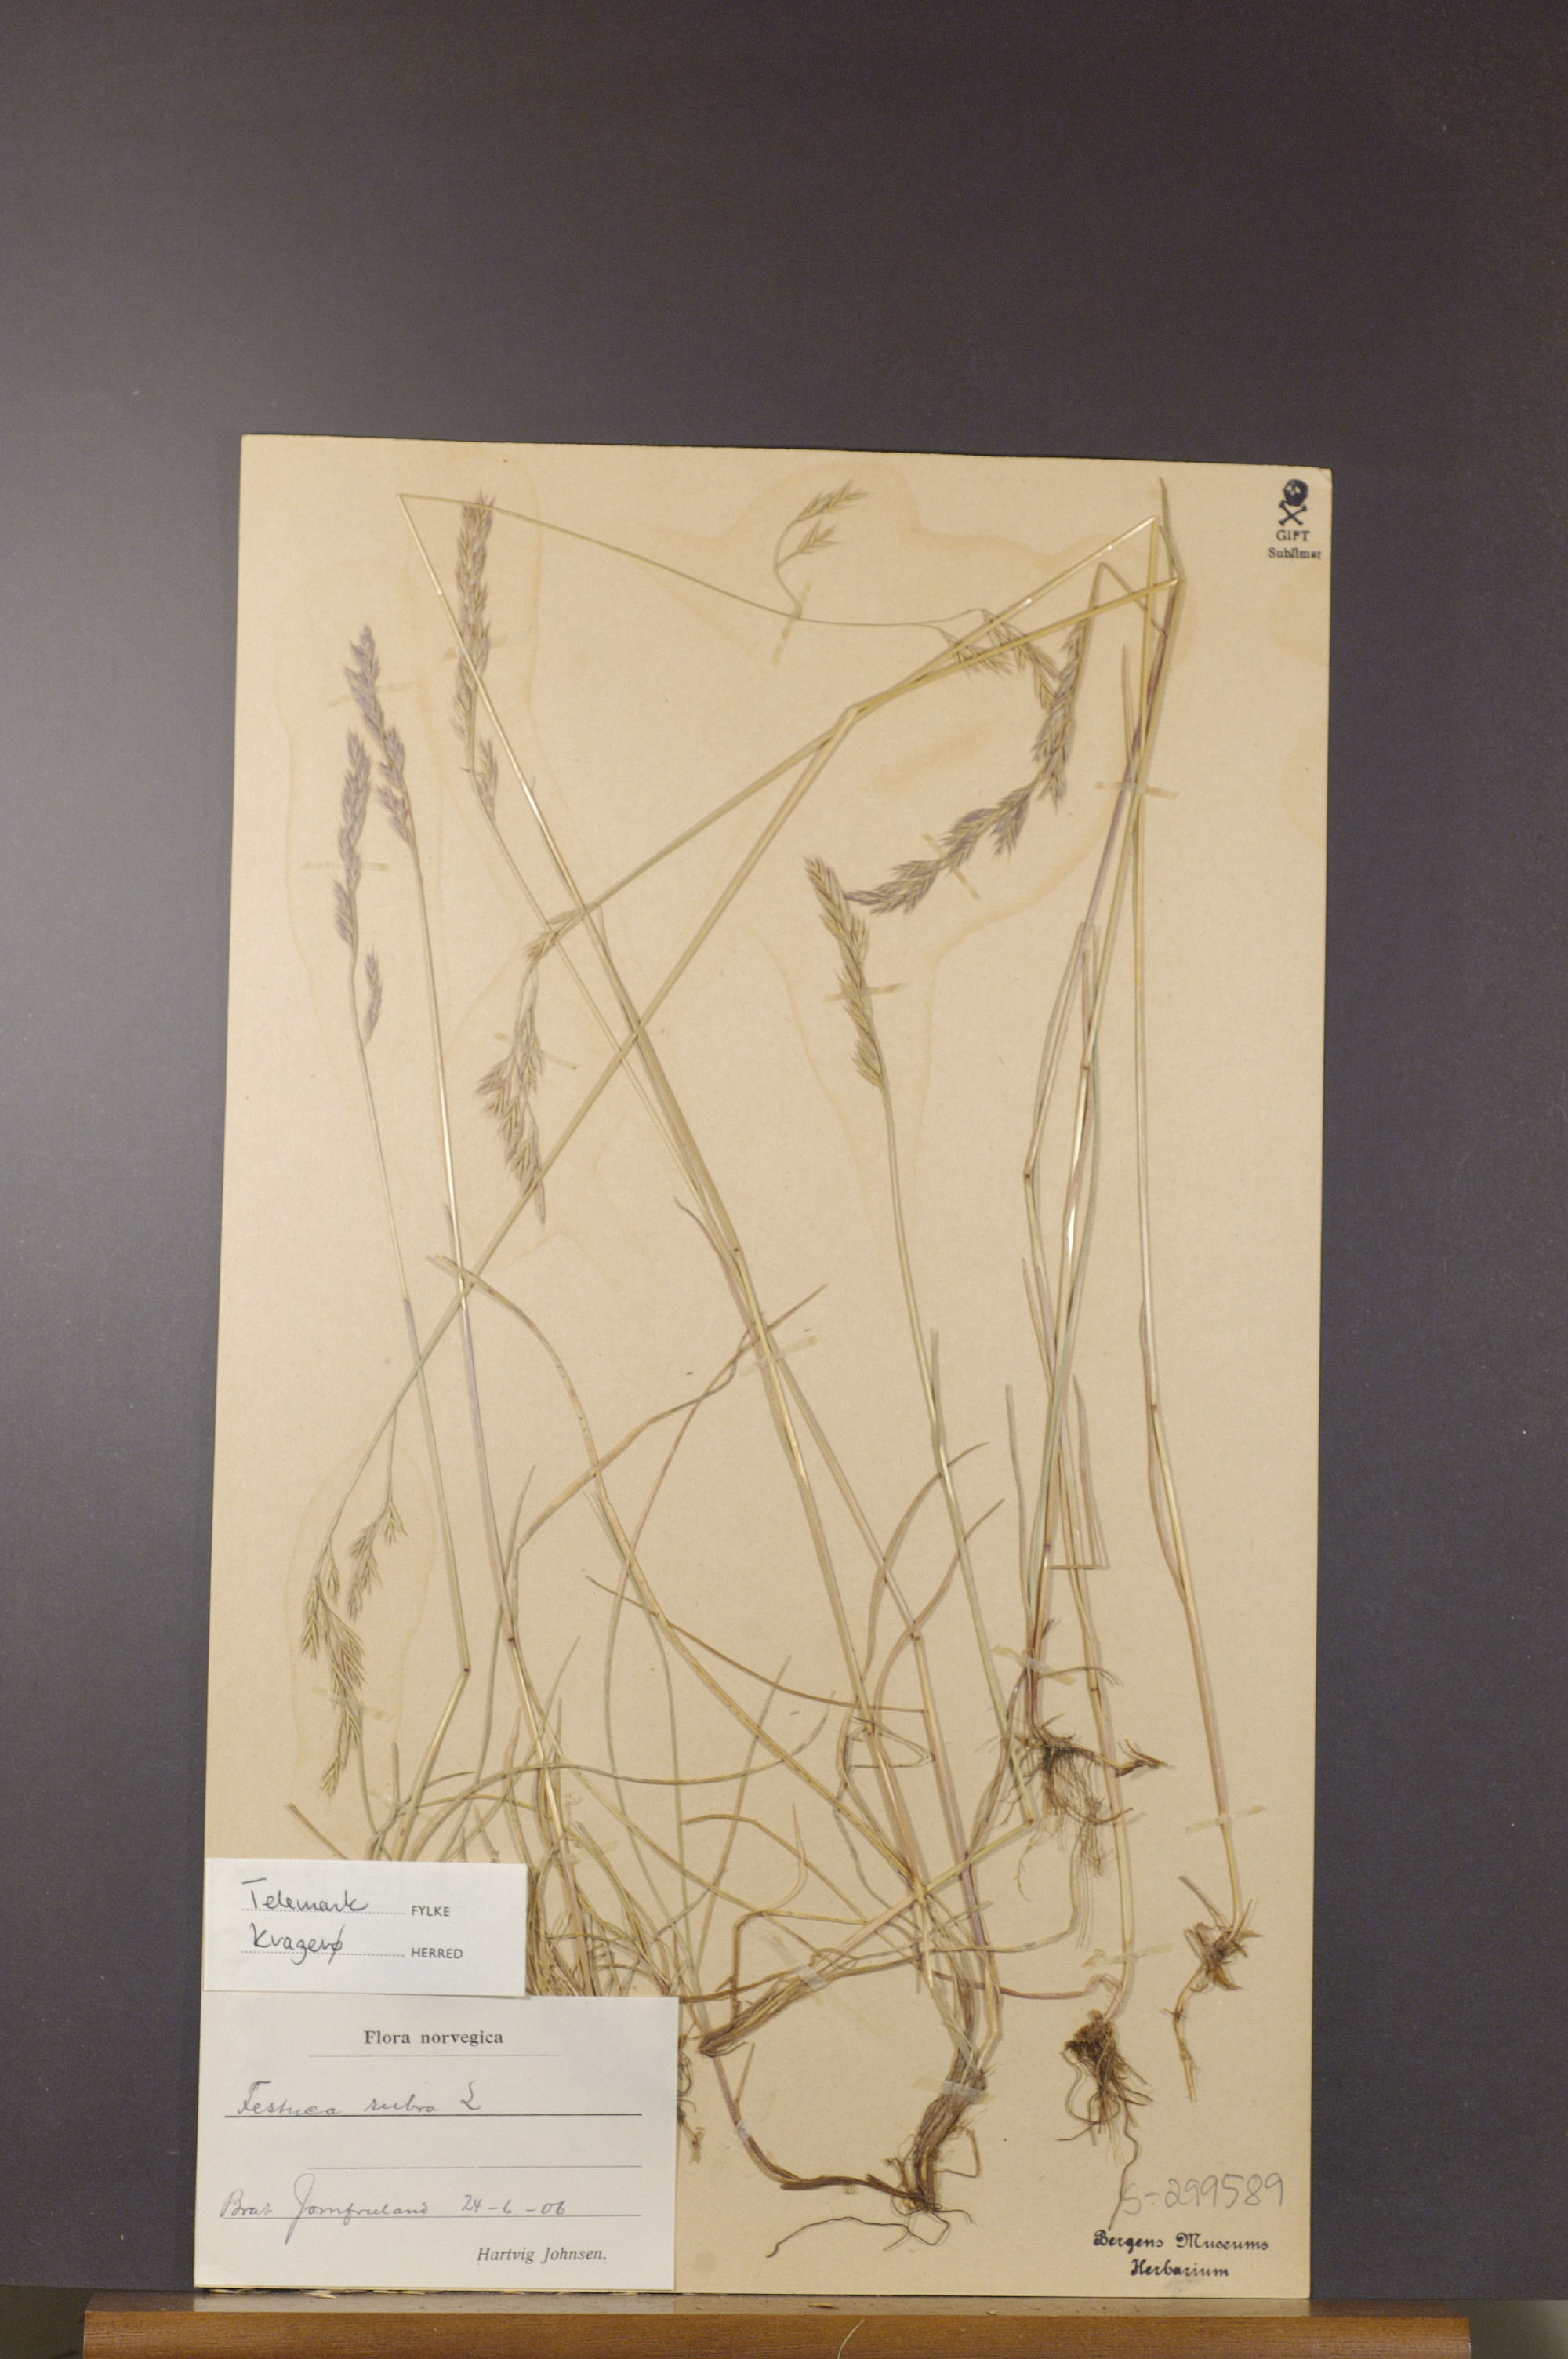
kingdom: Plantae
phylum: Tracheophyta
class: Liliopsida
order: Poales
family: Poaceae
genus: Festuca
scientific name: Festuca rubra
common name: Red fescue
